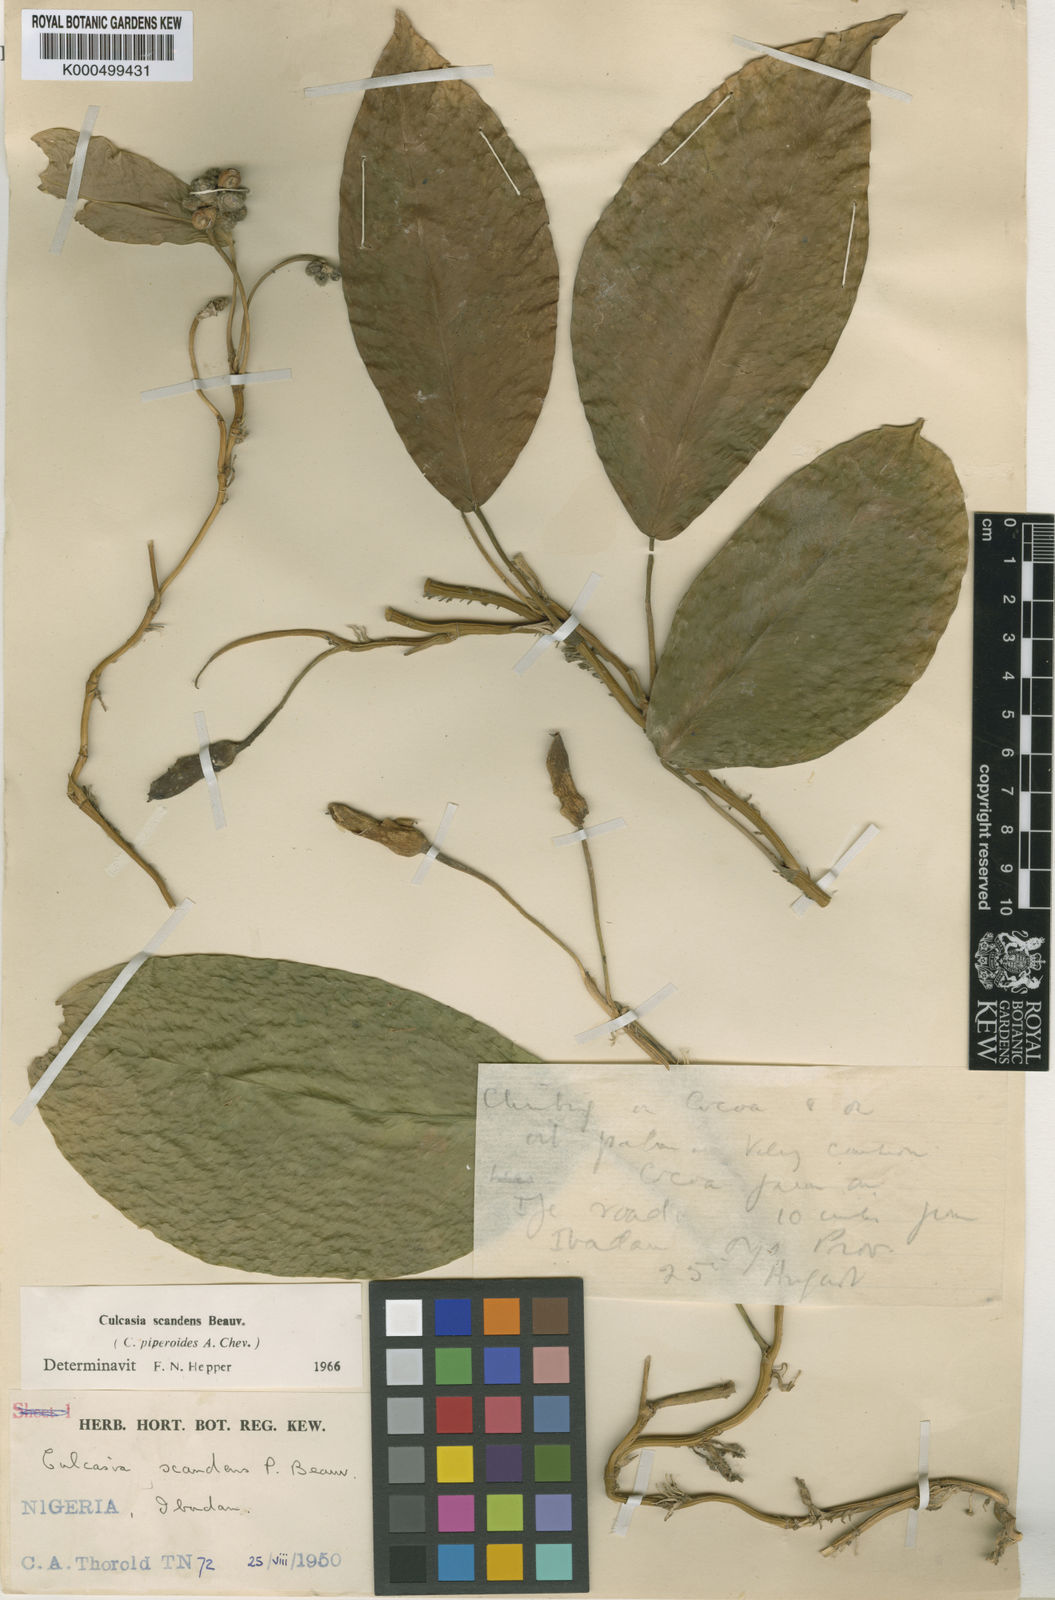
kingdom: Plantae
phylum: Tracheophyta
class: Liliopsida
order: Alismatales
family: Araceae
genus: Culcasia
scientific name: Culcasia scandens
